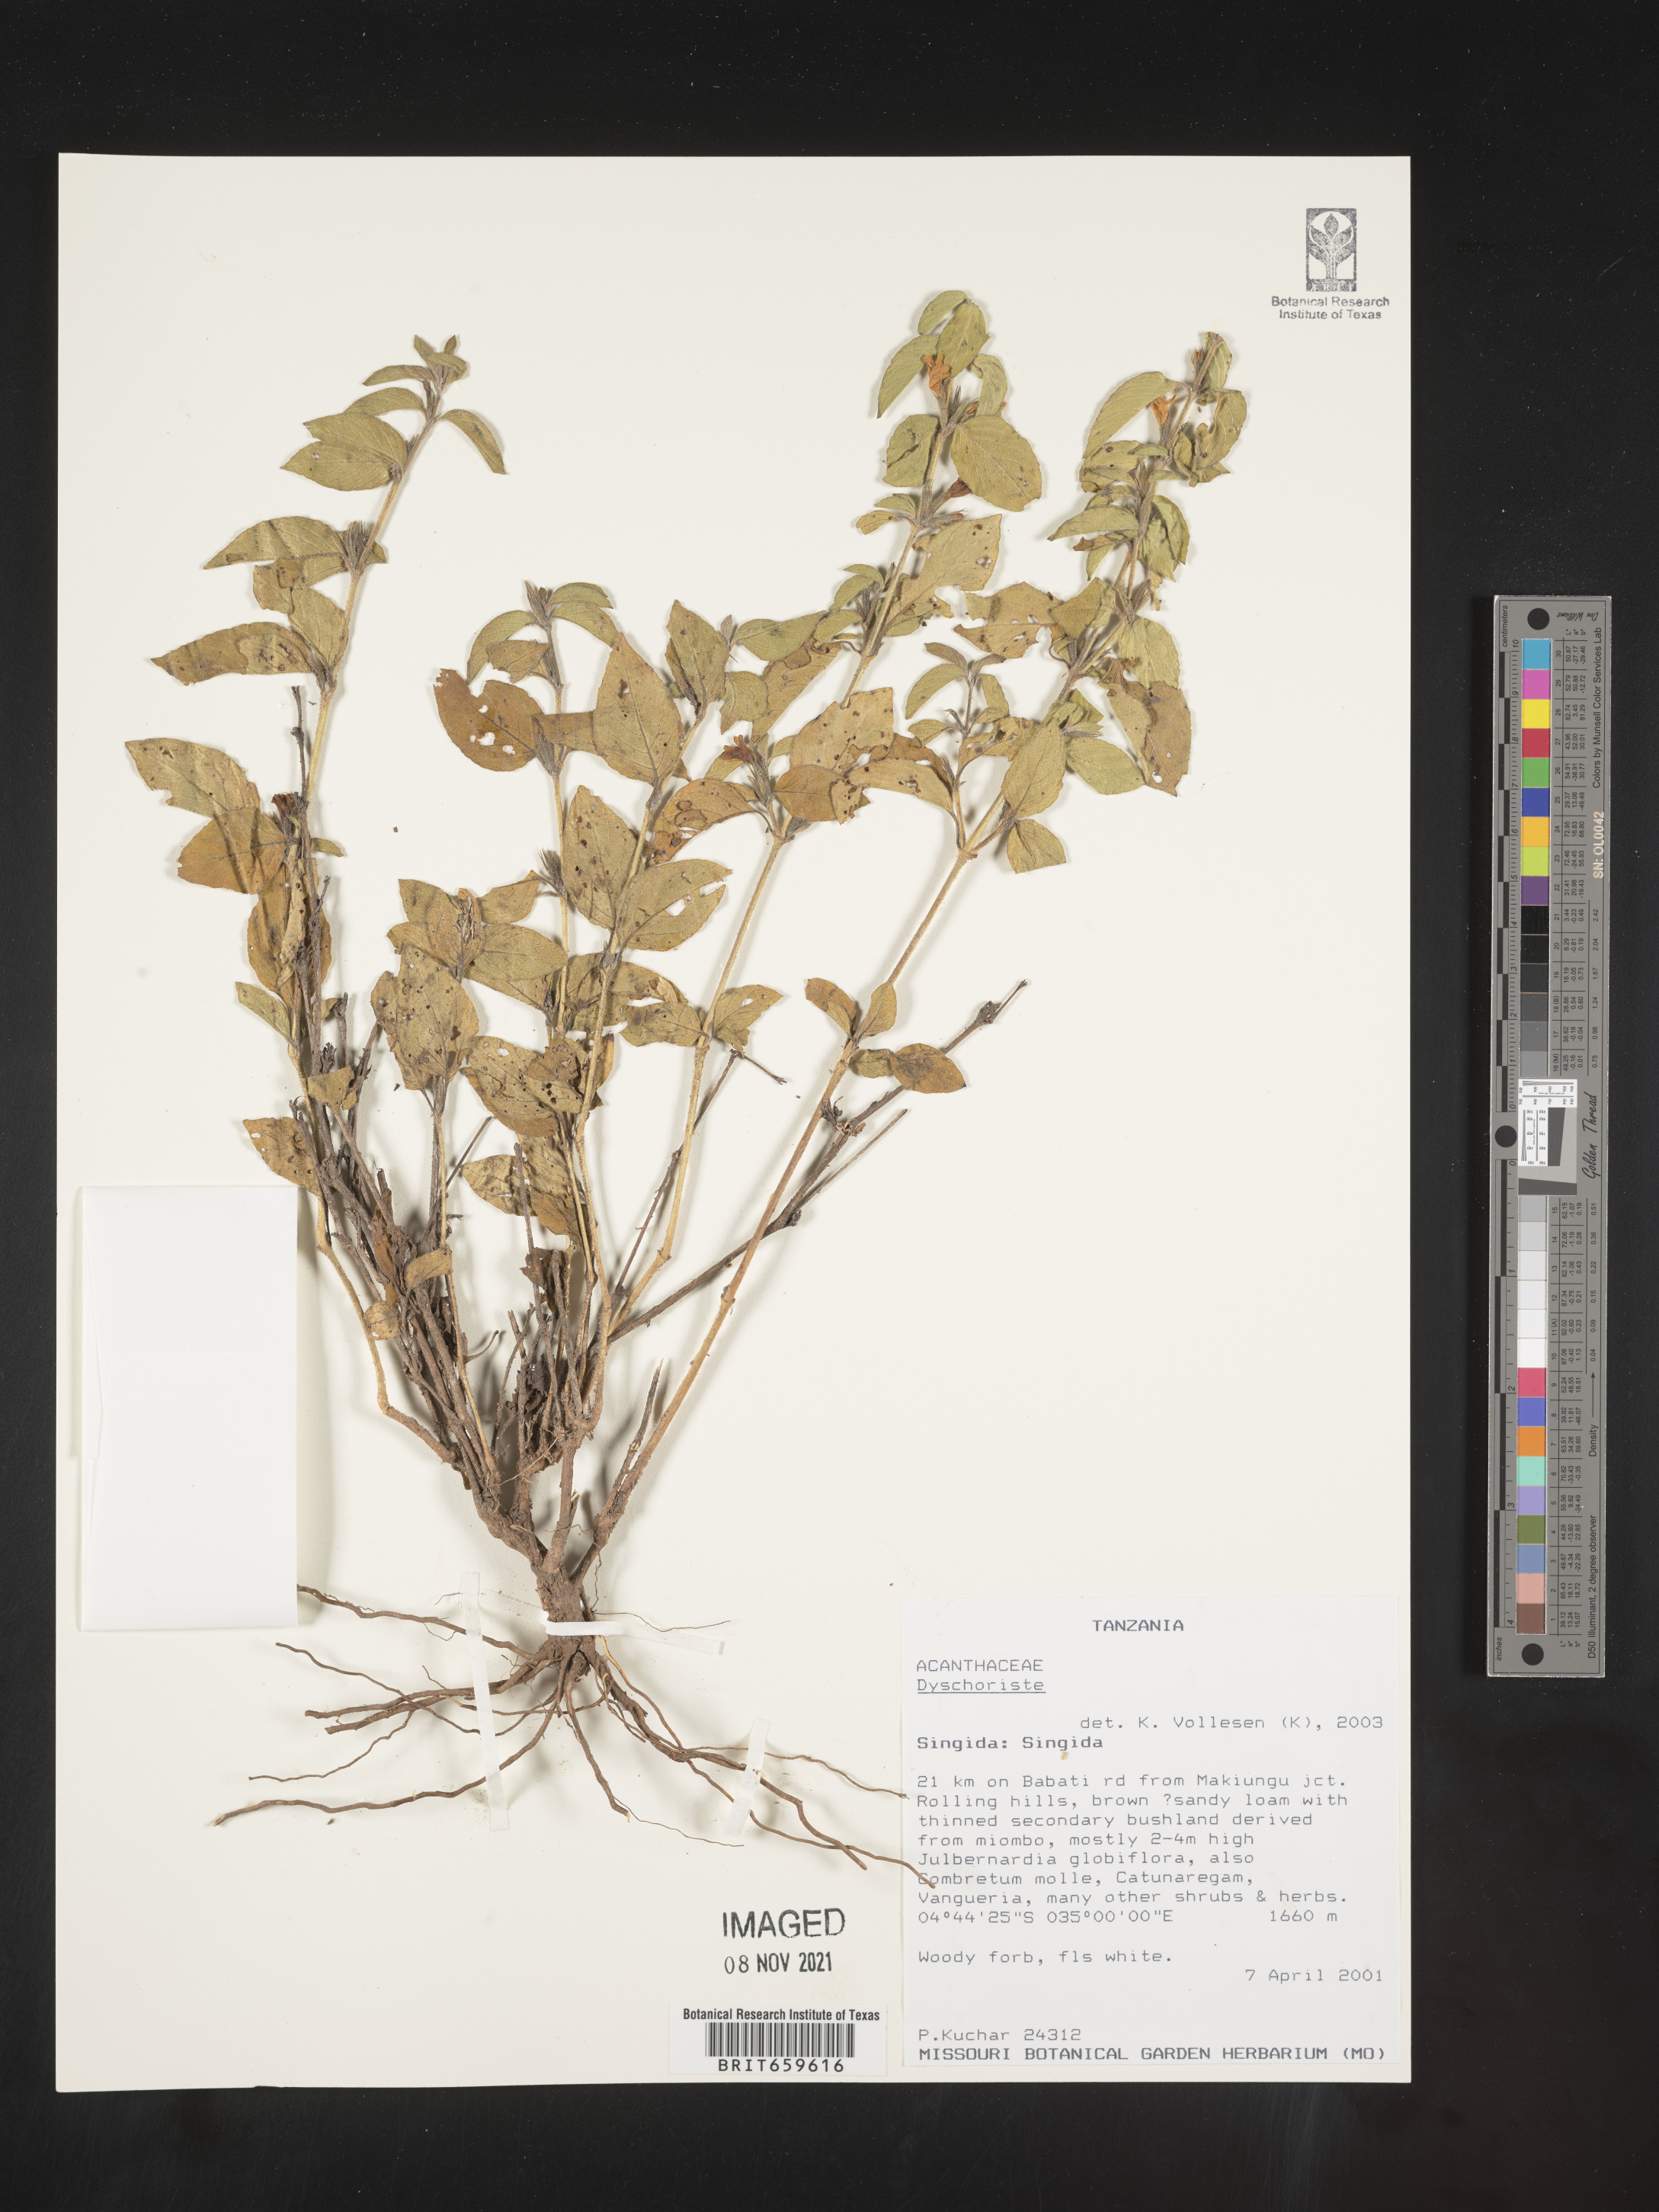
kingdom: Plantae
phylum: Tracheophyta
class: Magnoliopsida
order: Lamiales
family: Acanthaceae
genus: Dyschoriste
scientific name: Dyschoriste
